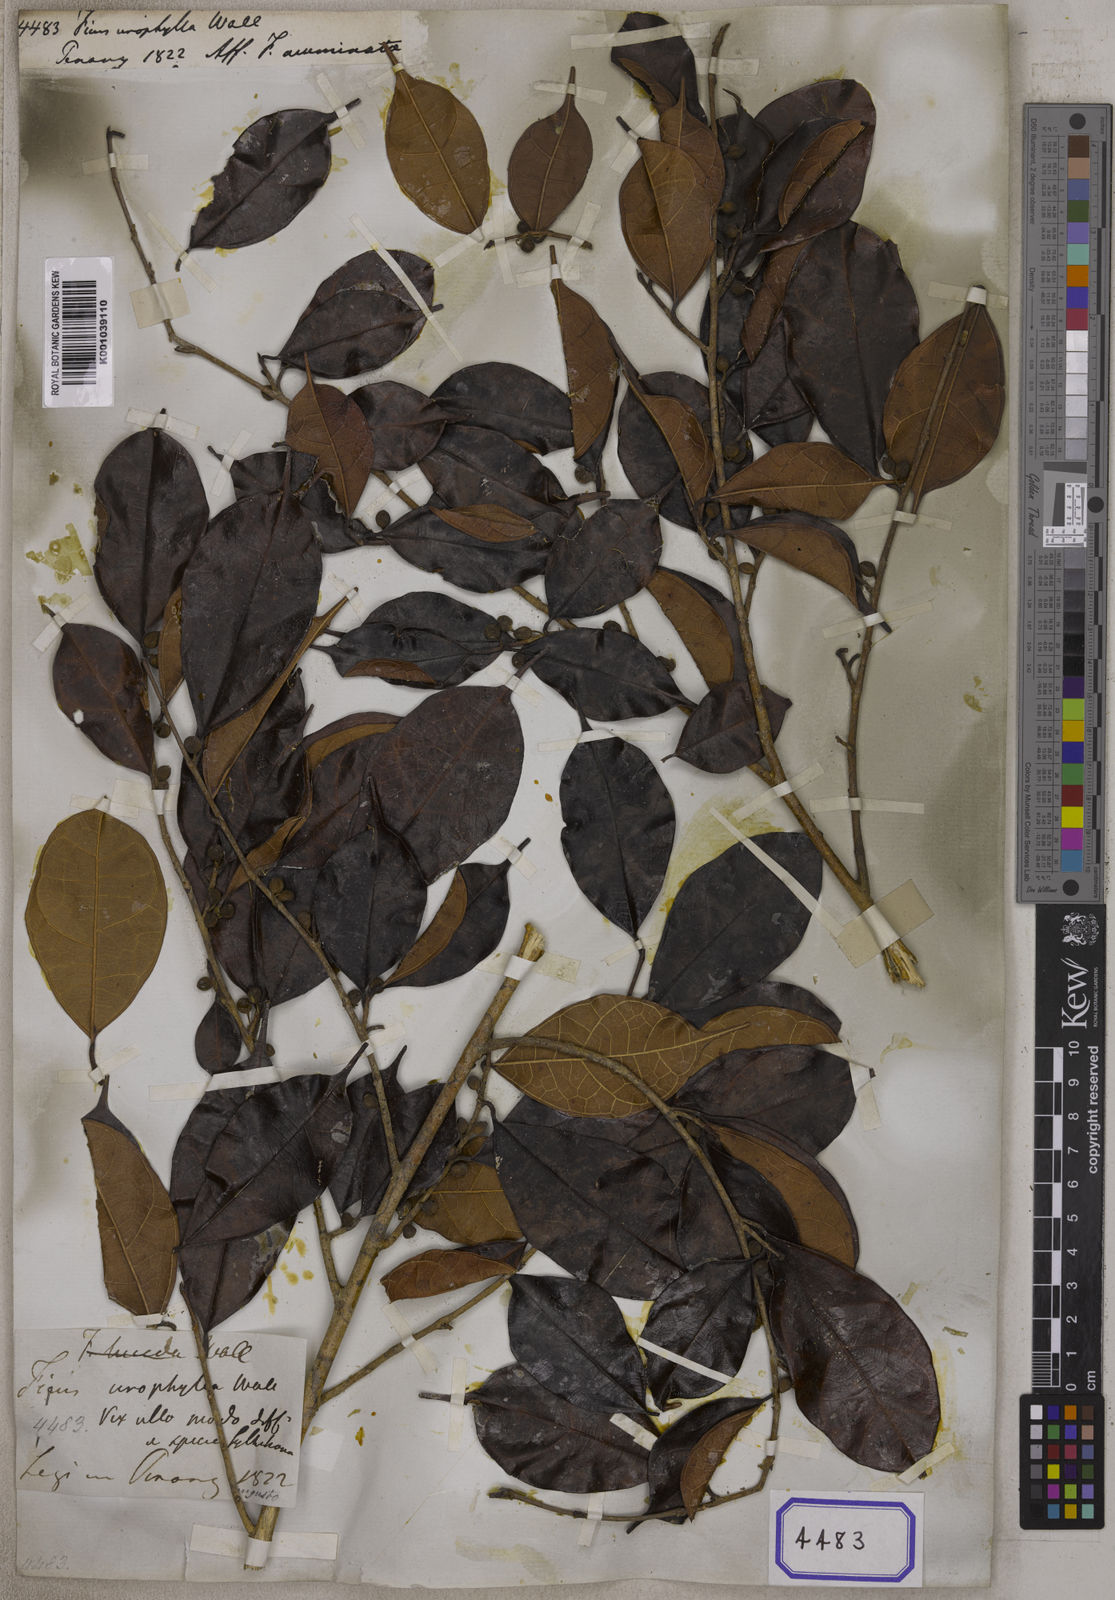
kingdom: Plantae
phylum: Tracheophyta
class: Magnoliopsida
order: Rosales
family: Moraceae
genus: Ficus
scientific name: Ficus
